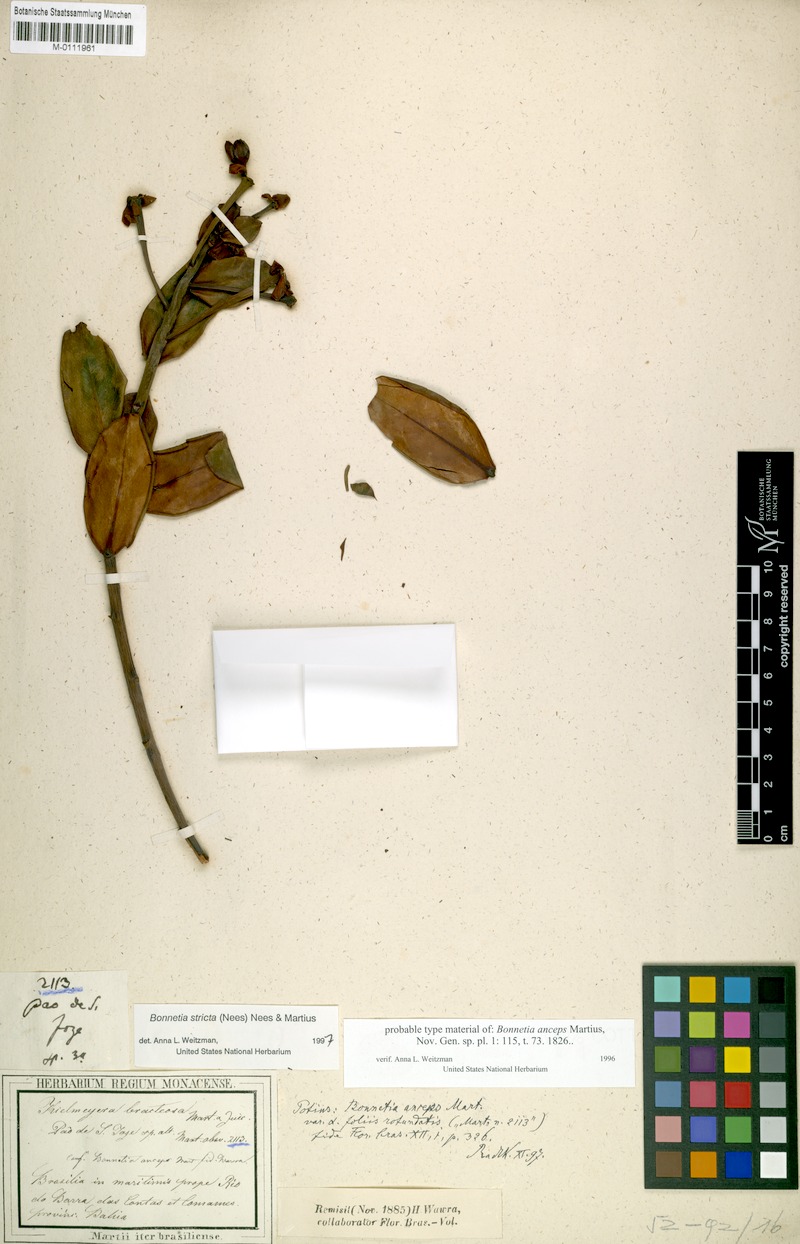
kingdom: Plantae
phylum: Tracheophyta
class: Magnoliopsida
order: Malpighiales
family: Bonnetiaceae
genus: Bonnetia
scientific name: Bonnetia stricta
